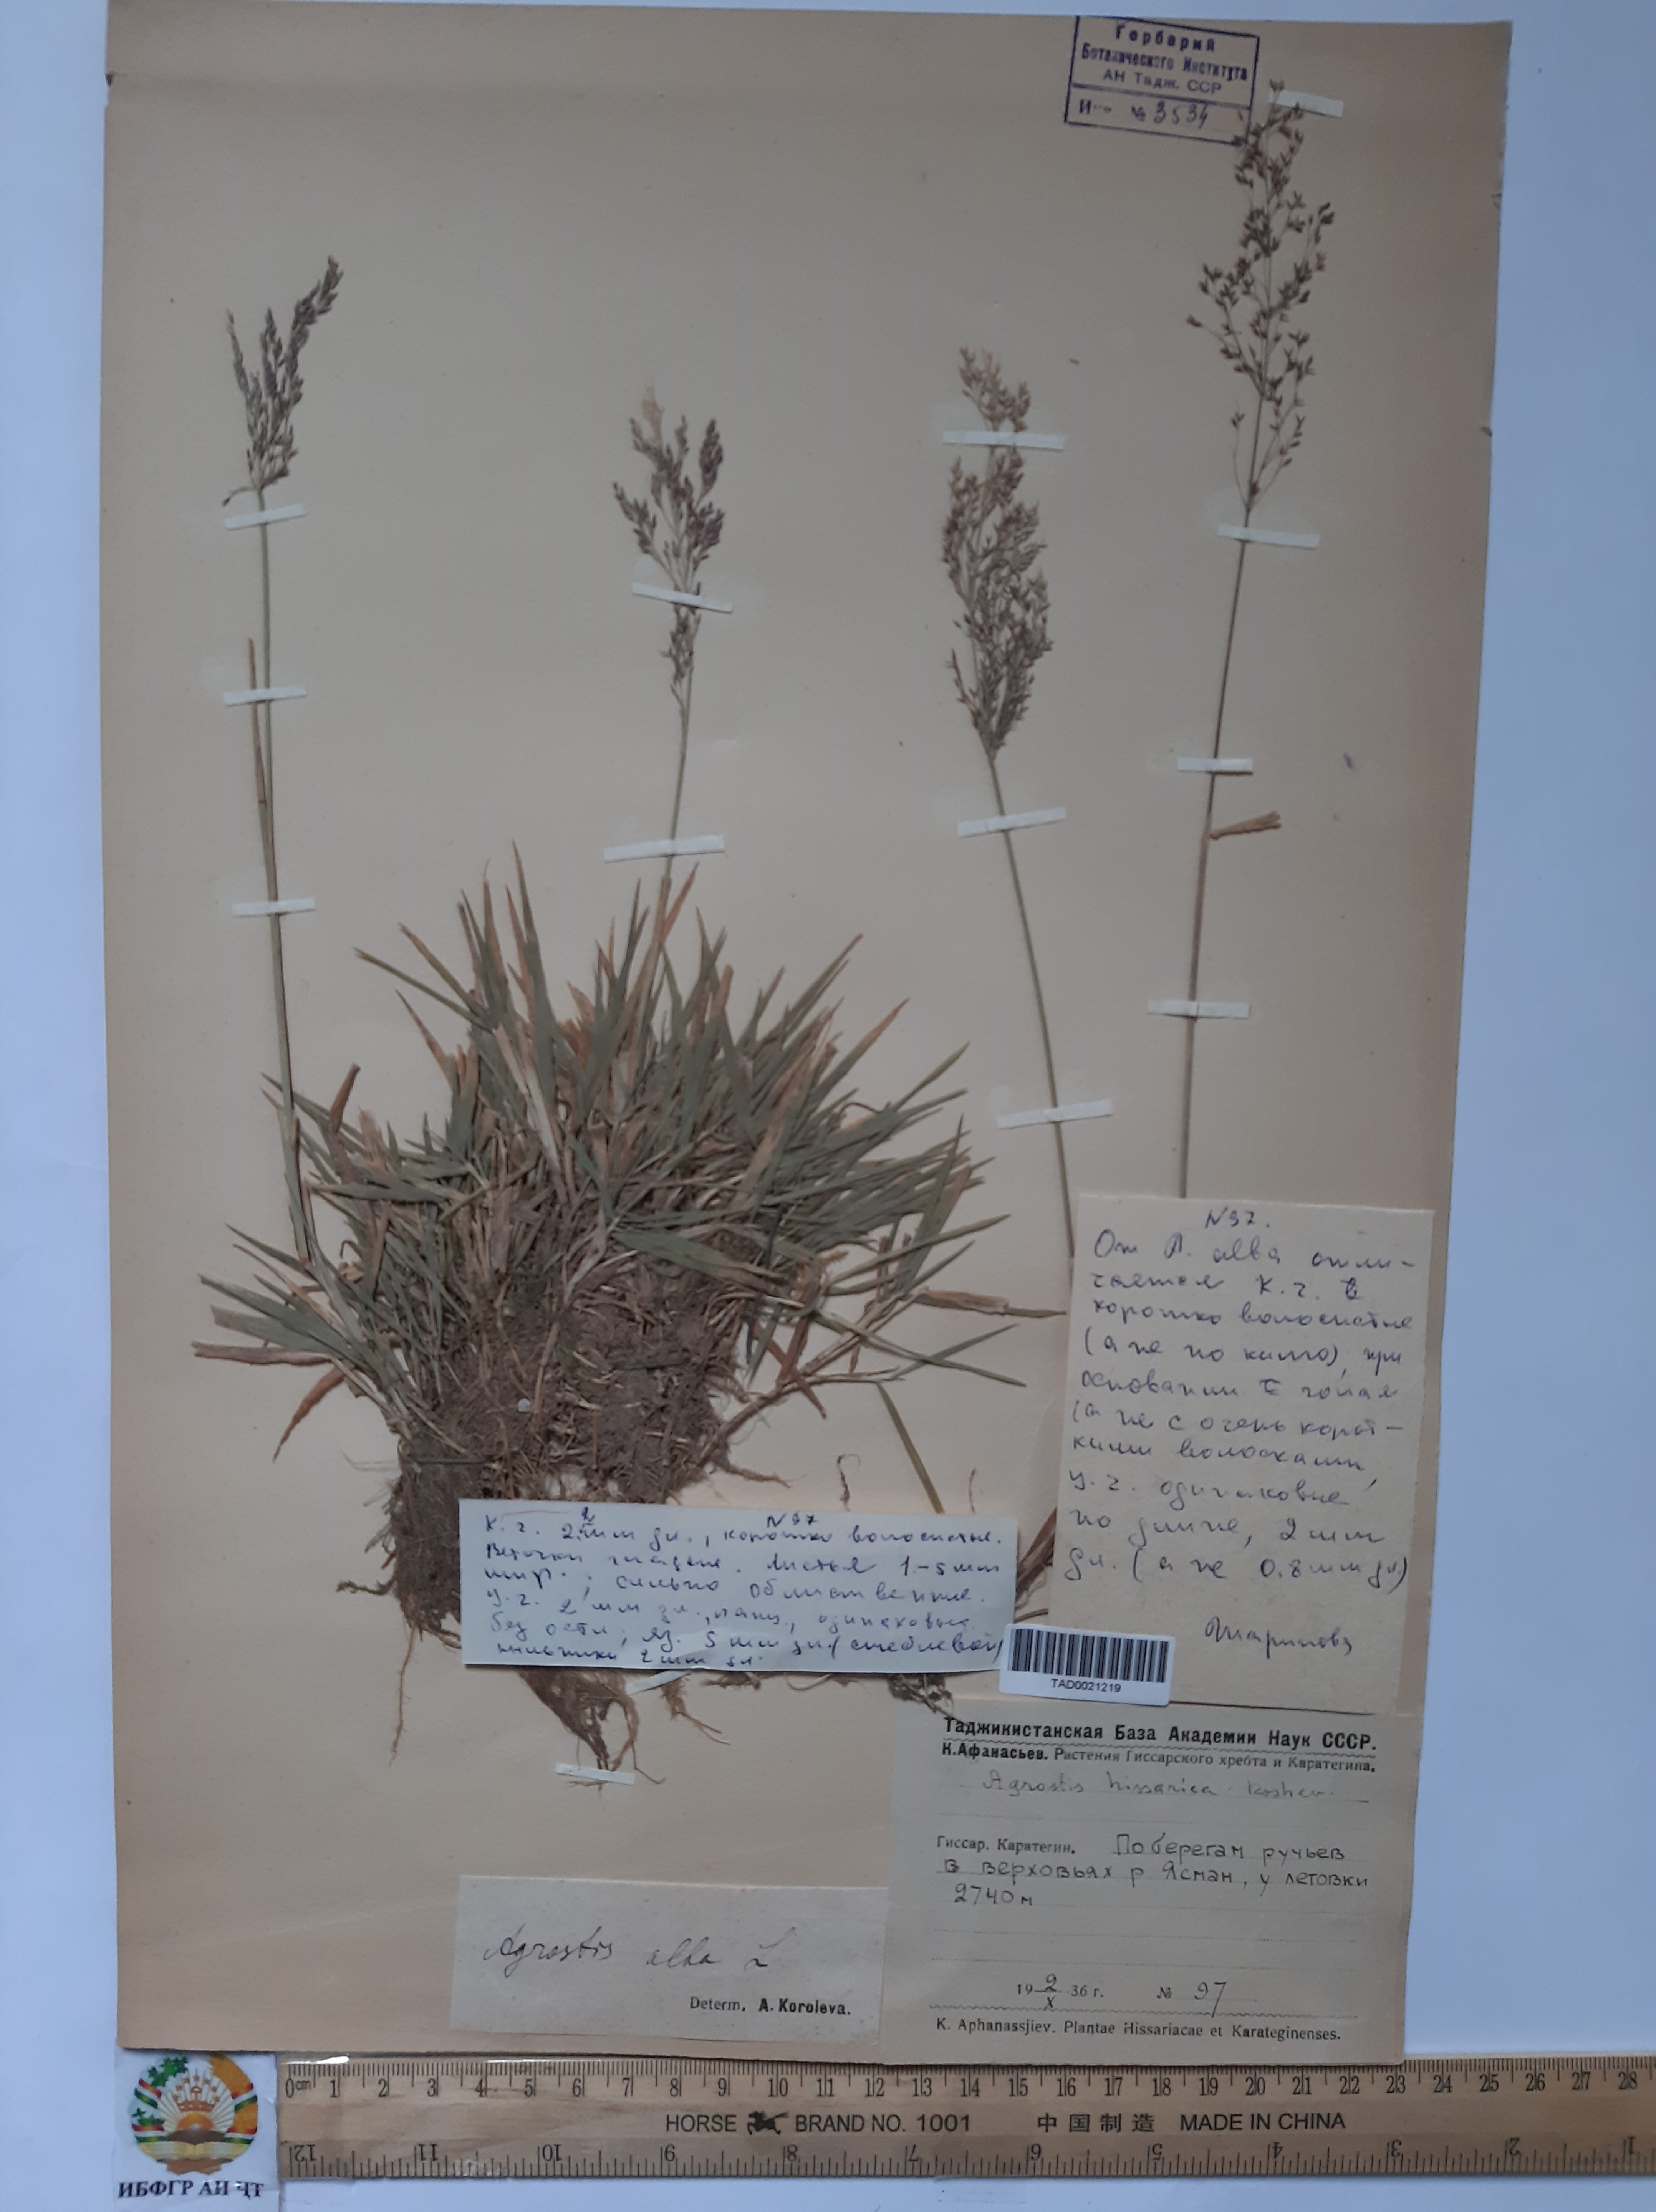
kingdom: Plantae
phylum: Tracheophyta
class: Liliopsida
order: Poales
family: Poaceae
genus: Polypogon
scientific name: Polypogon hissaricus
